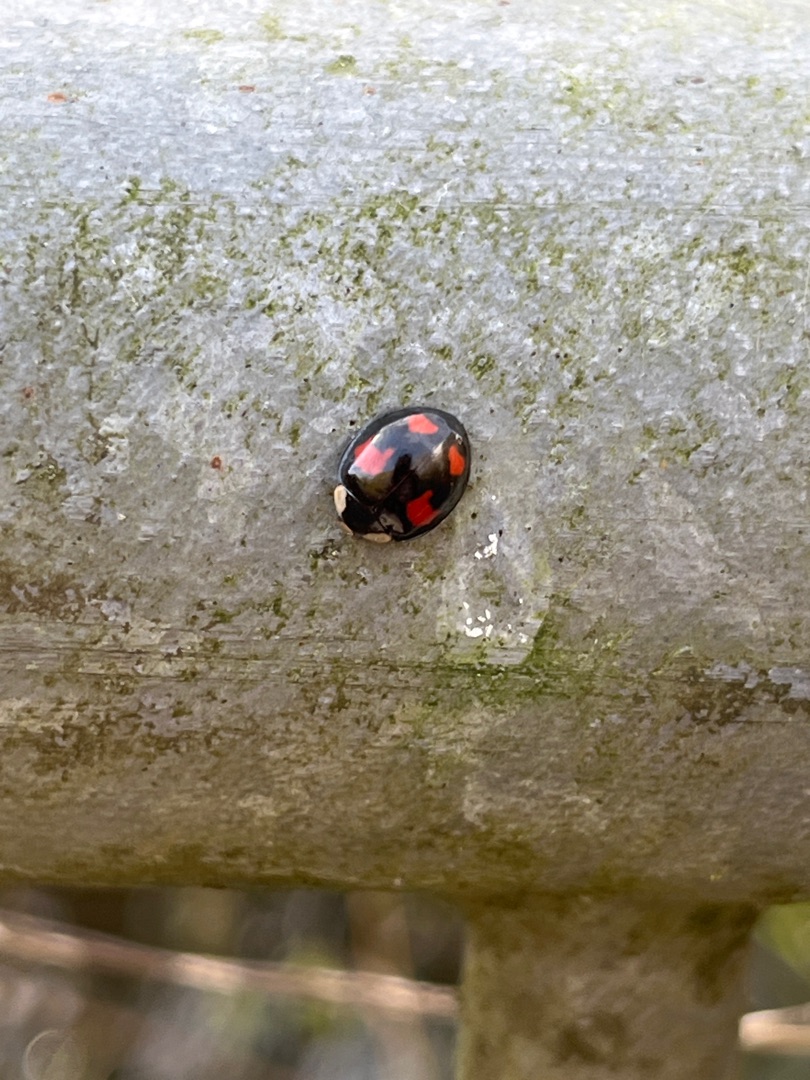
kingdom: Animalia
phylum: Arthropoda
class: Insecta
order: Coleoptera
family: Coccinellidae
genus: Harmonia
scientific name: Harmonia axyridis
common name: Harlekinmariehøne
